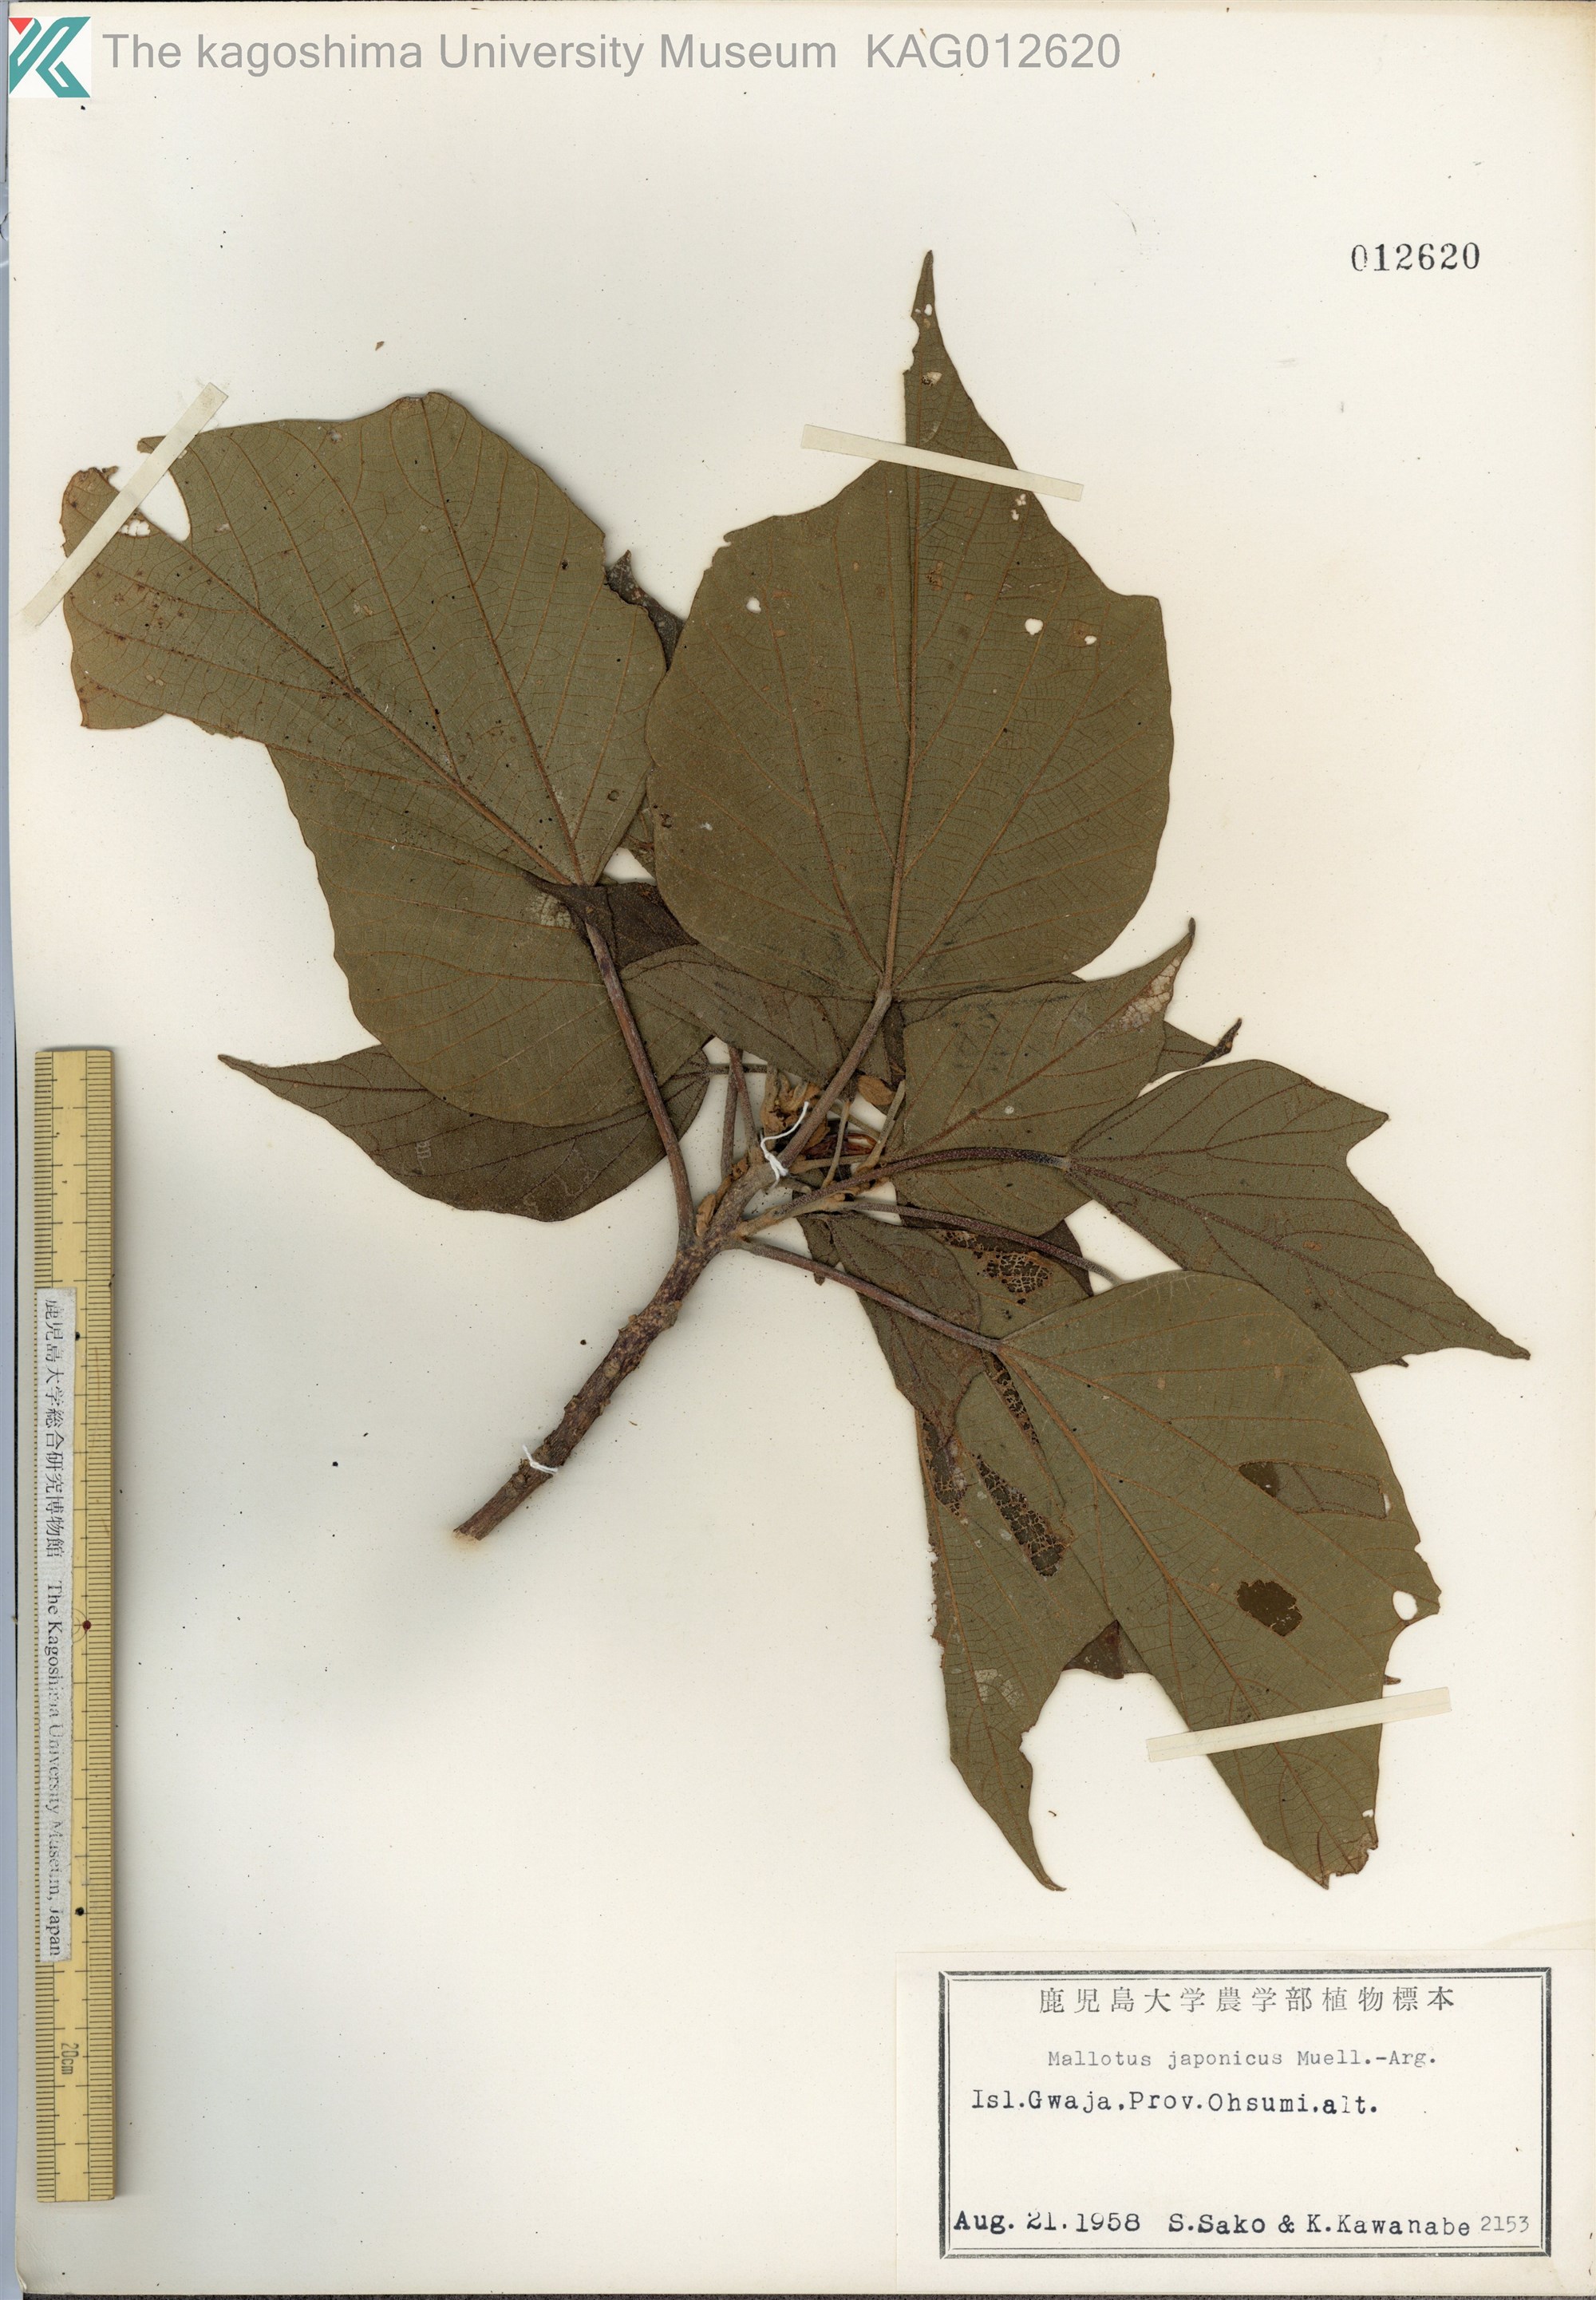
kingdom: Plantae
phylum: Tracheophyta
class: Magnoliopsida
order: Malpighiales
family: Euphorbiaceae
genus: Mallotus
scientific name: Mallotus japonicus
